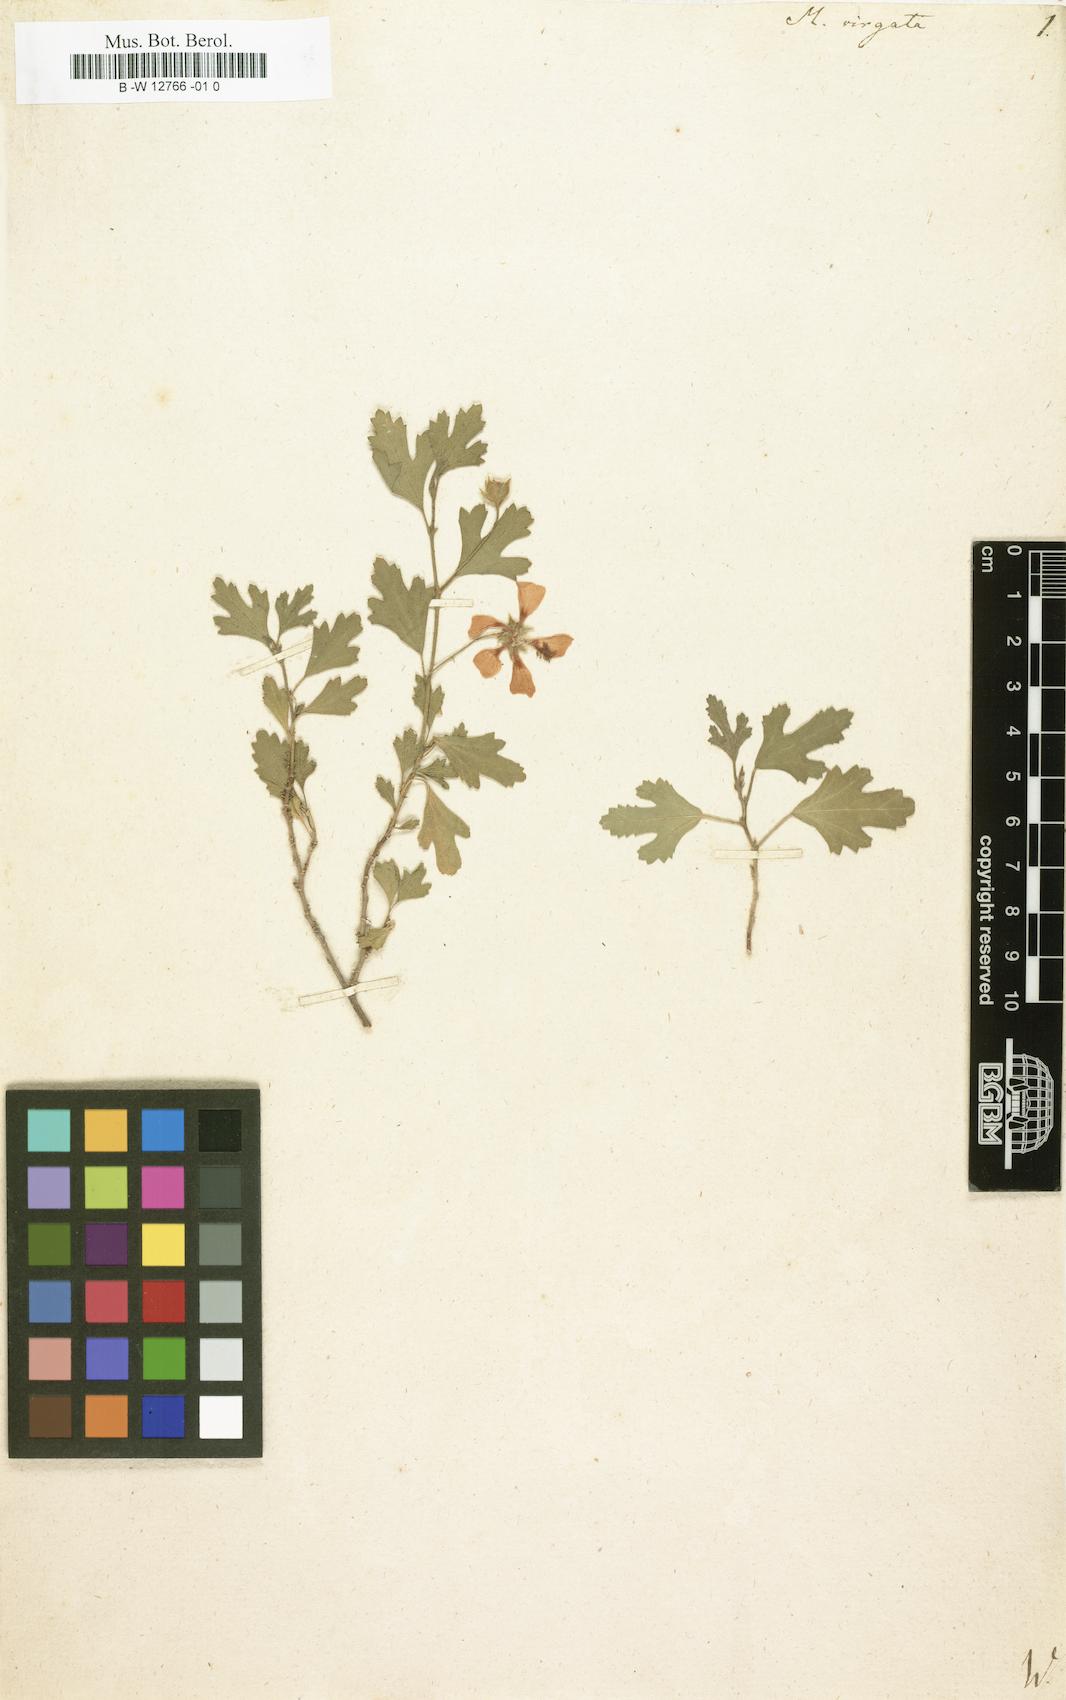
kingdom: Plantae
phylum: Tracheophyta
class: Magnoliopsida
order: Malvales
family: Malvaceae
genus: Anisodontea
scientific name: Anisodontea
